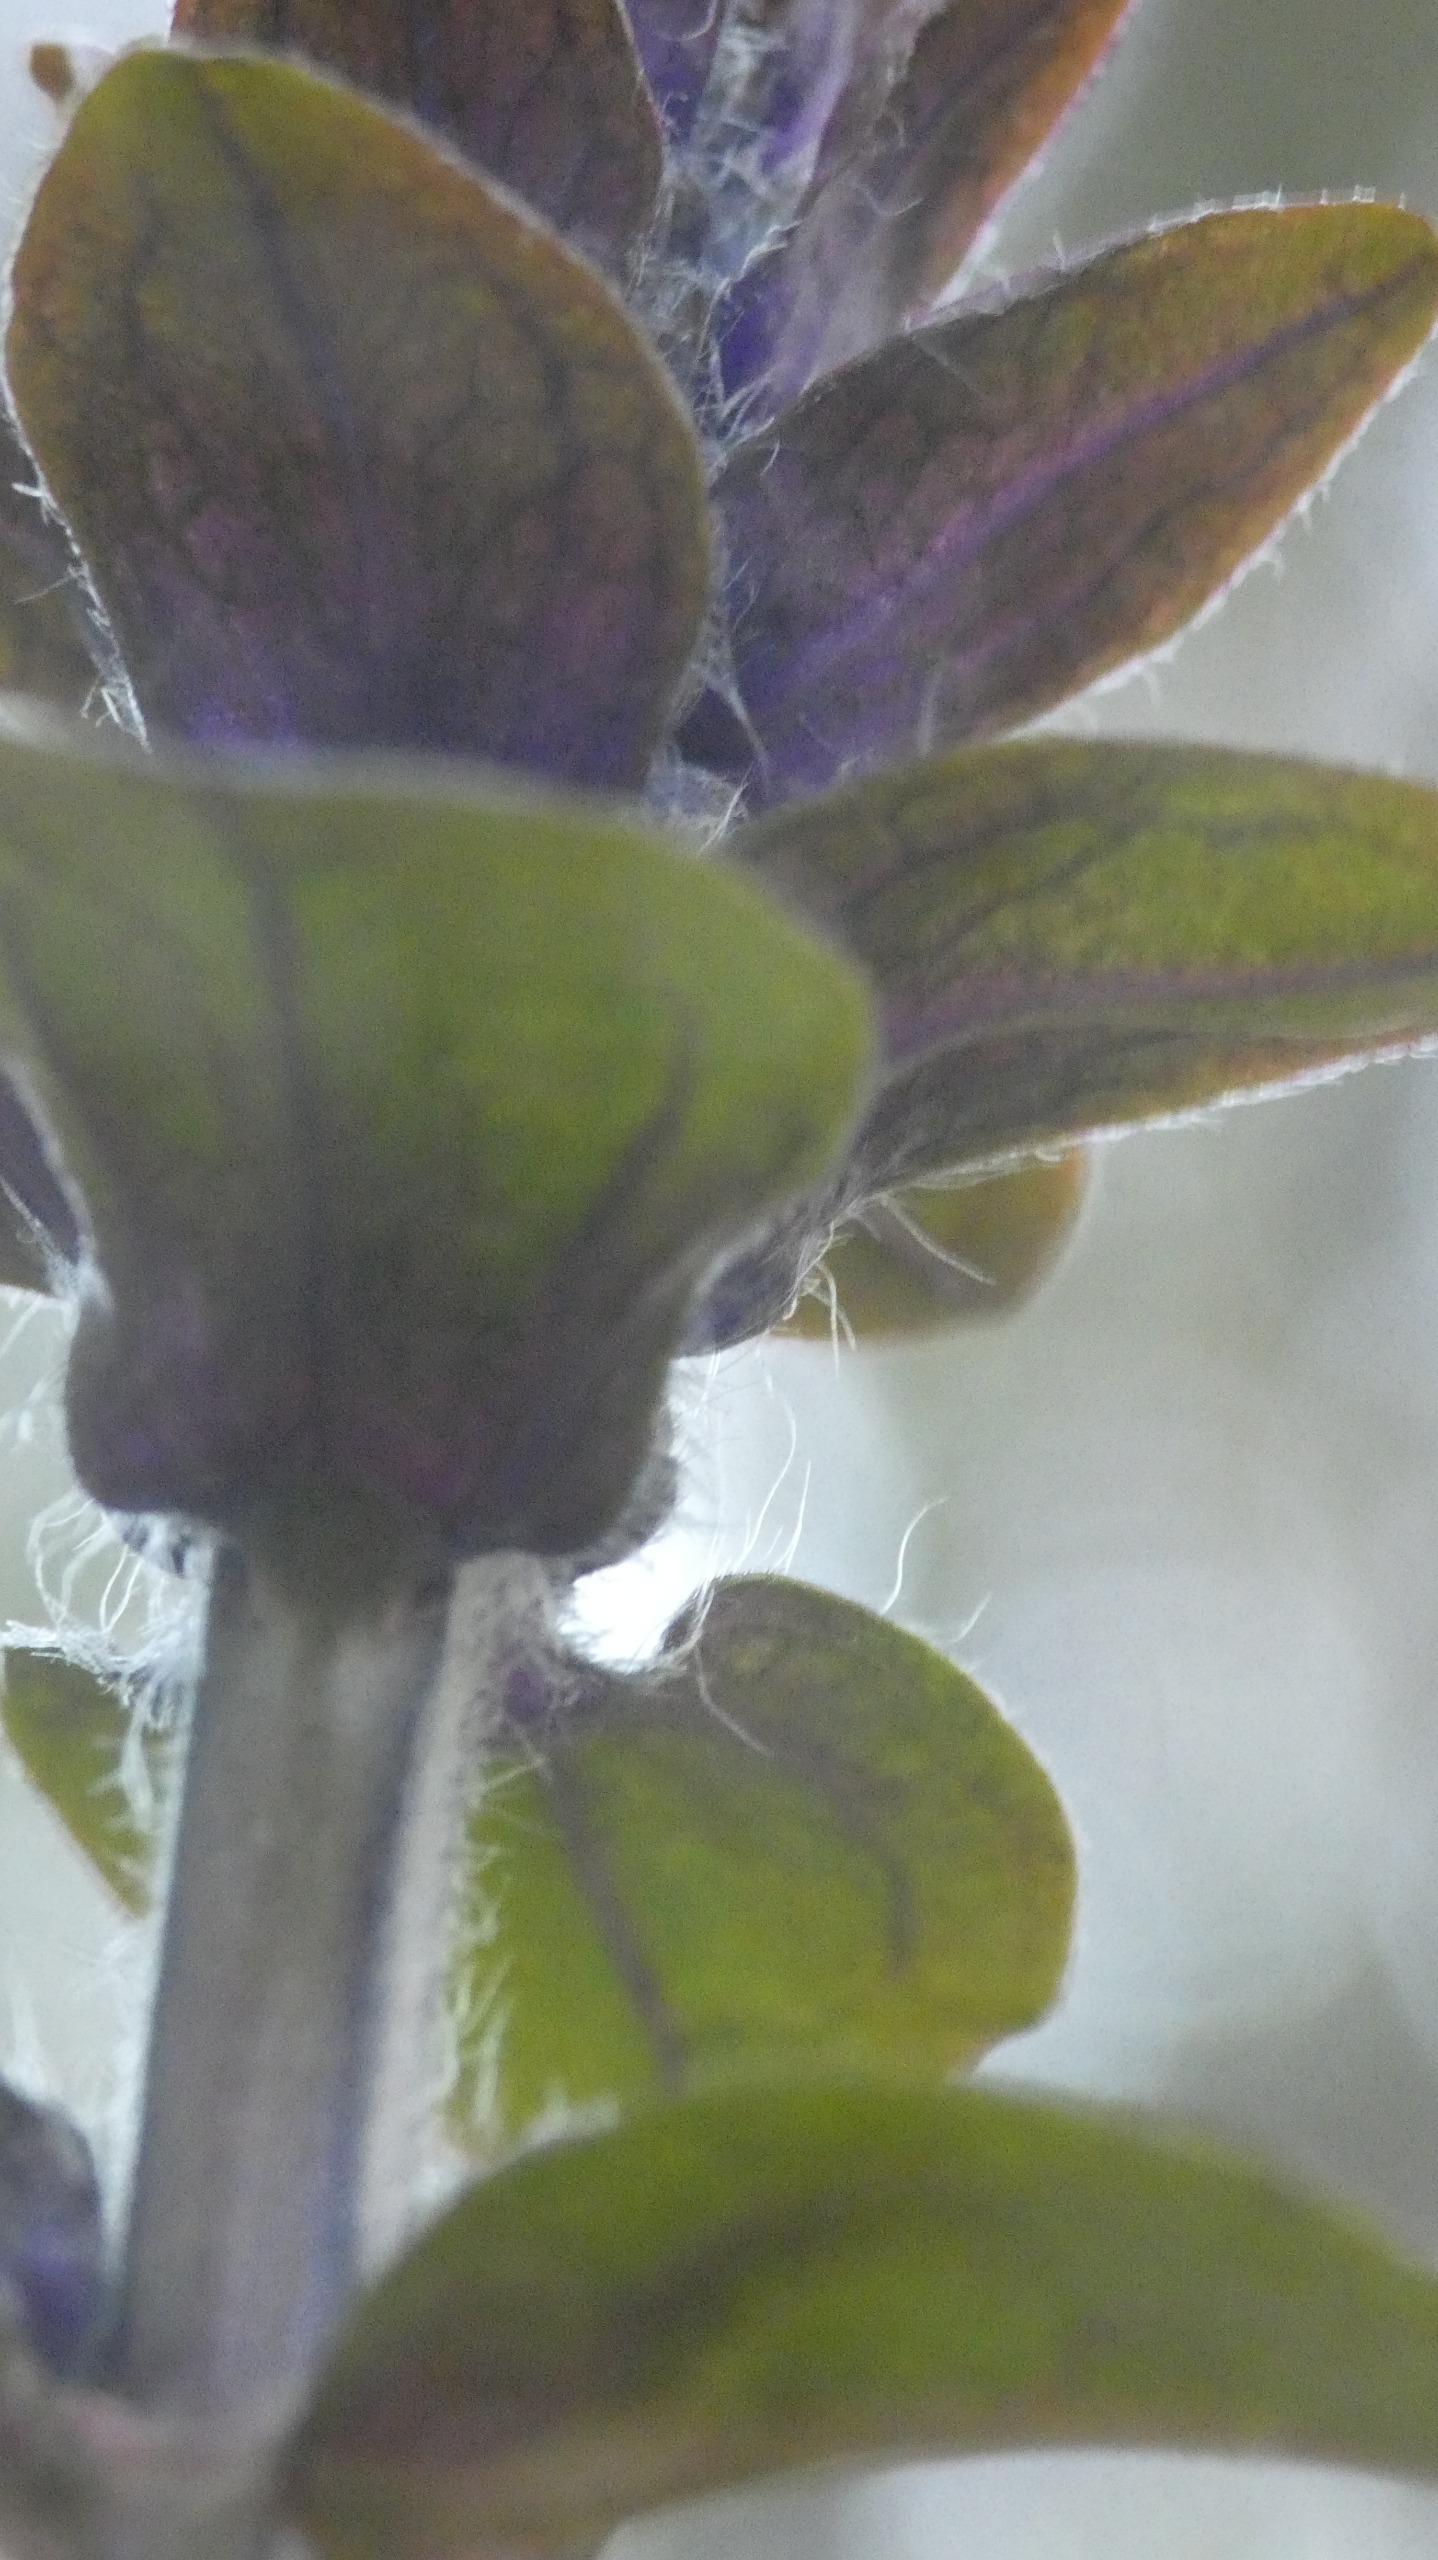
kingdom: Plantae
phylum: Tracheophyta
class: Magnoliopsida
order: Lamiales
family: Lamiaceae
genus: Ajuga
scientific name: Ajuga reptans
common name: Krybende læbeløs
